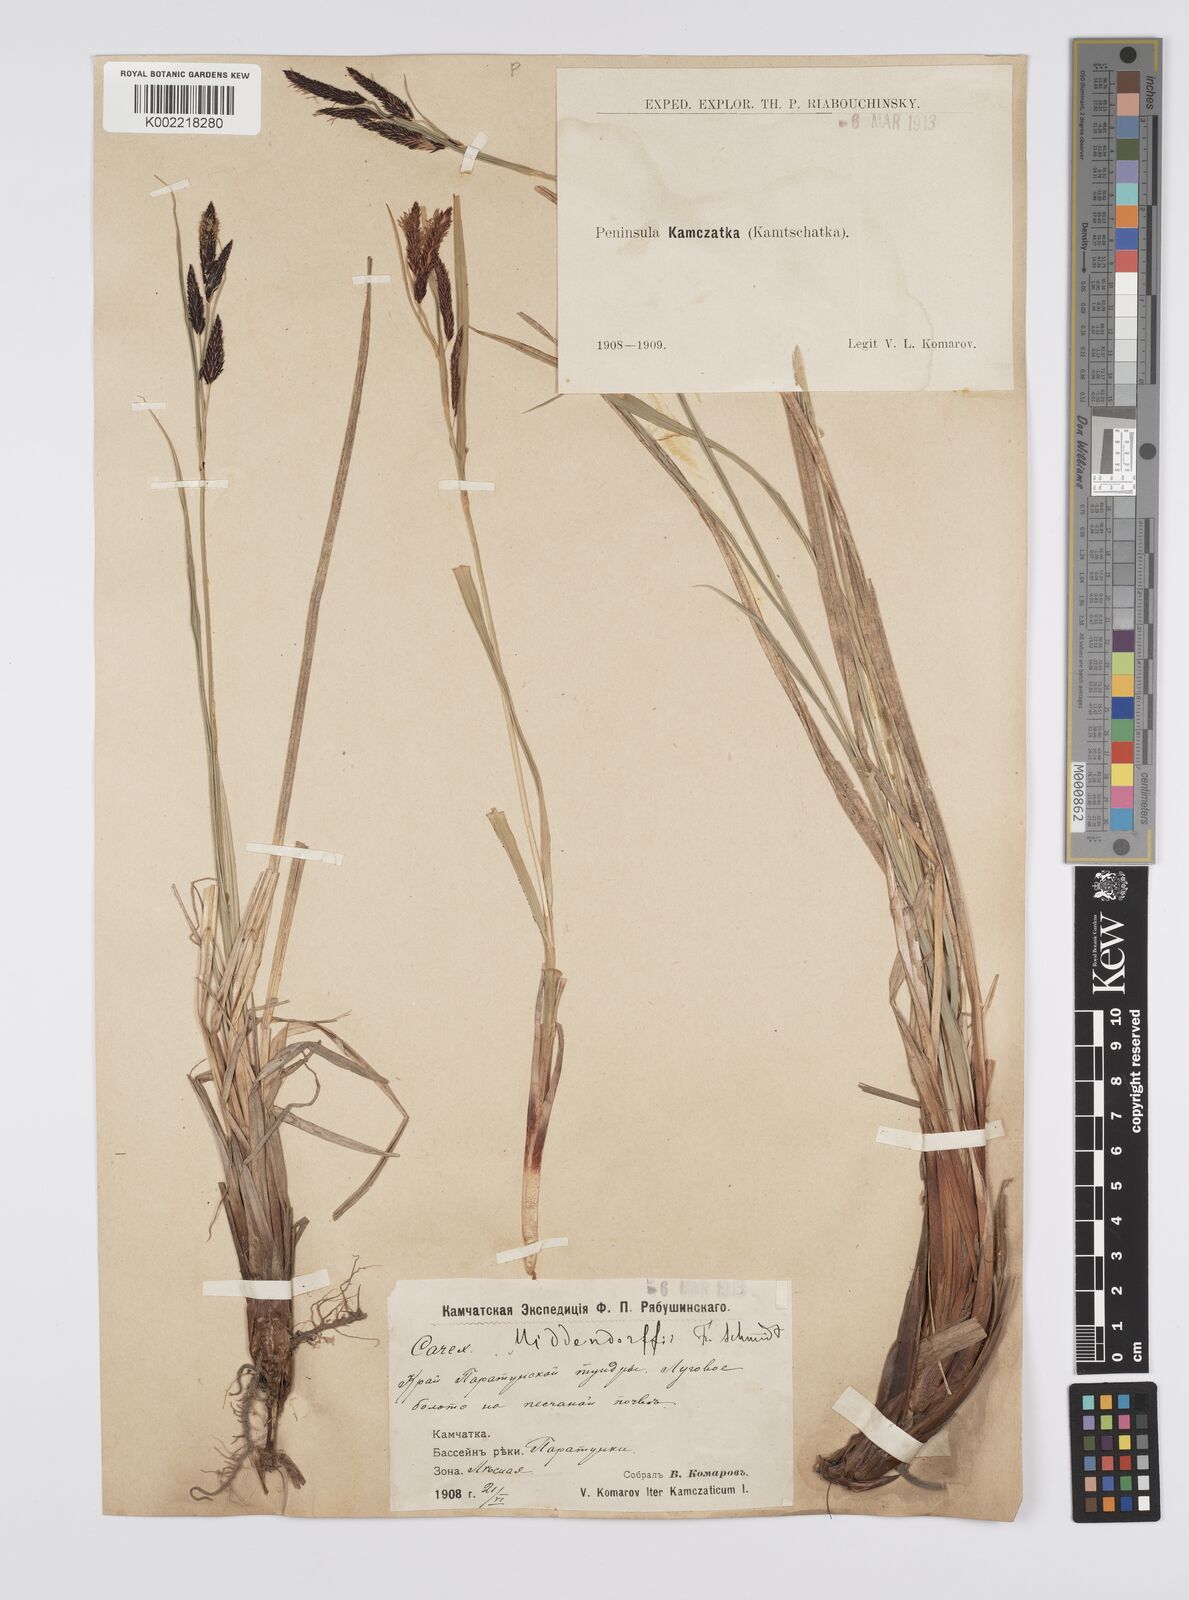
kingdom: Plantae
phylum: Tracheophyta
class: Liliopsida
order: Poales
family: Cyperaceae
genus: Carex
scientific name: Carex middendorffii
